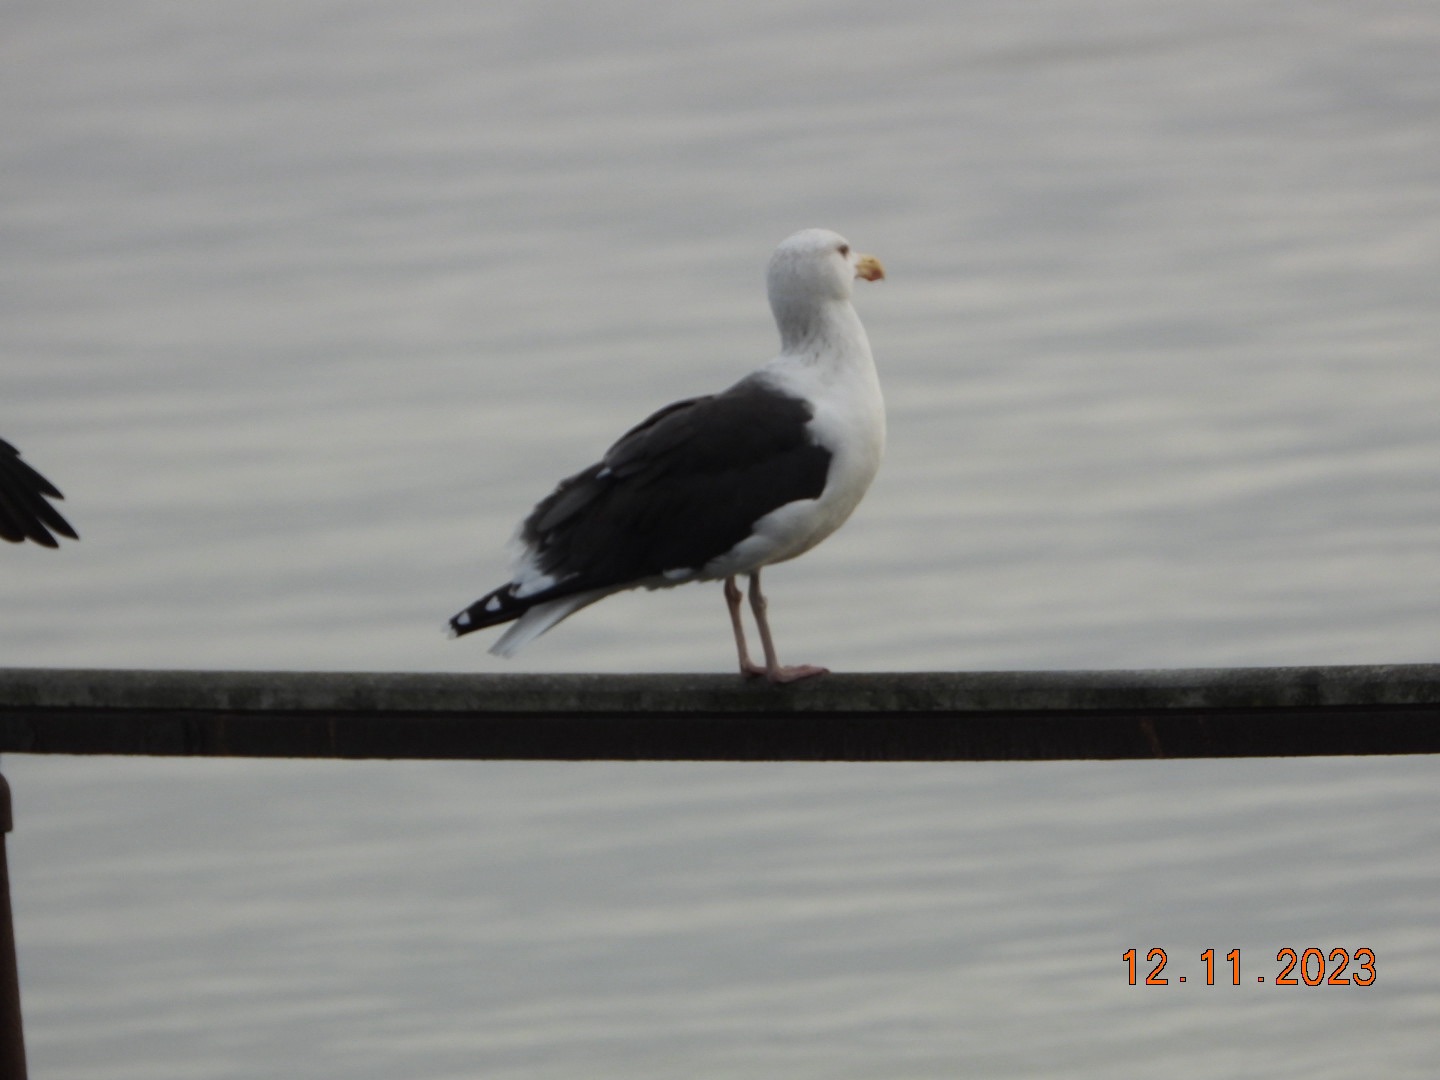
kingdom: Animalia
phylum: Chordata
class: Aves
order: Charadriiformes
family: Laridae
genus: Larus
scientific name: Larus marinus
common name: Svartbag
